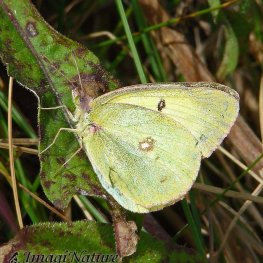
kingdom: Animalia
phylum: Arthropoda
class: Insecta
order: Lepidoptera
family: Pieridae
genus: Colias
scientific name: Colias philodice
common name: Clouded Sulphur
